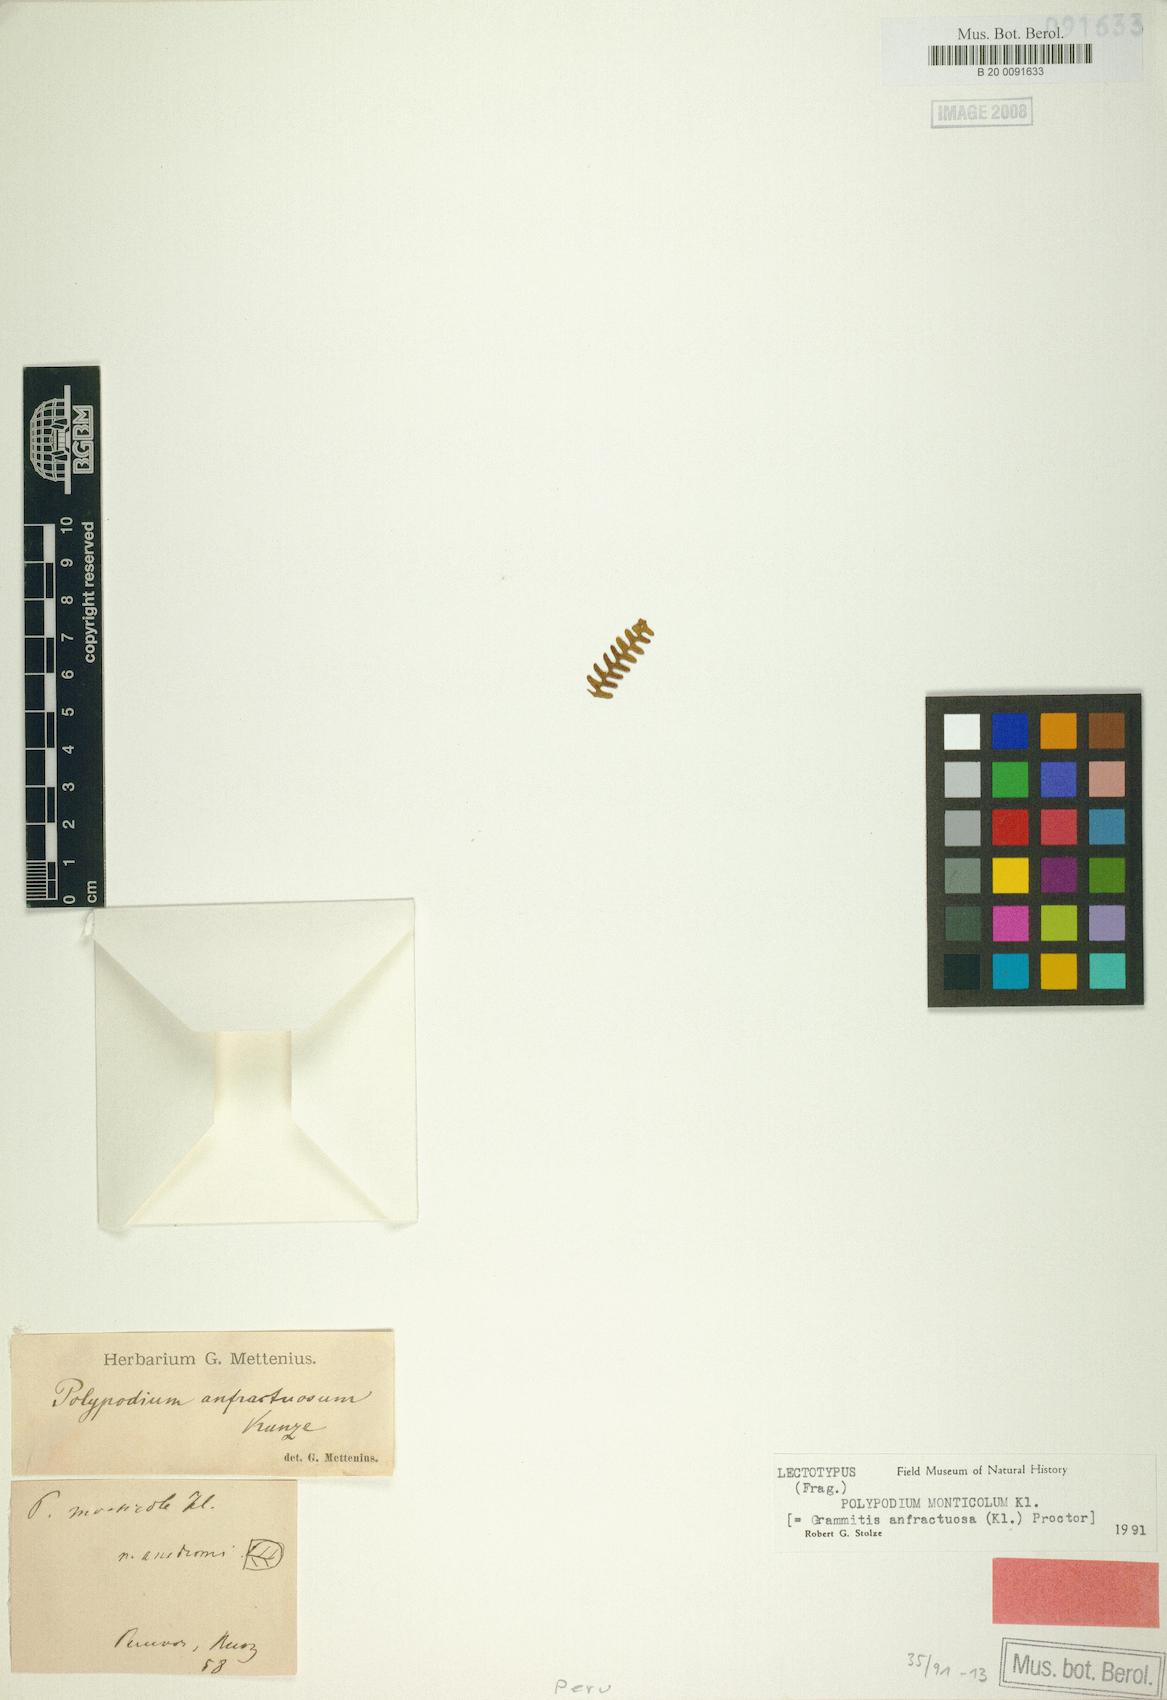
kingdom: Plantae
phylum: Tracheophyta
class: Polypodiopsida
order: Polypodiales
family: Polypodiaceae
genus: Ascogrammitis
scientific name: Ascogrammitis anfractuosa
